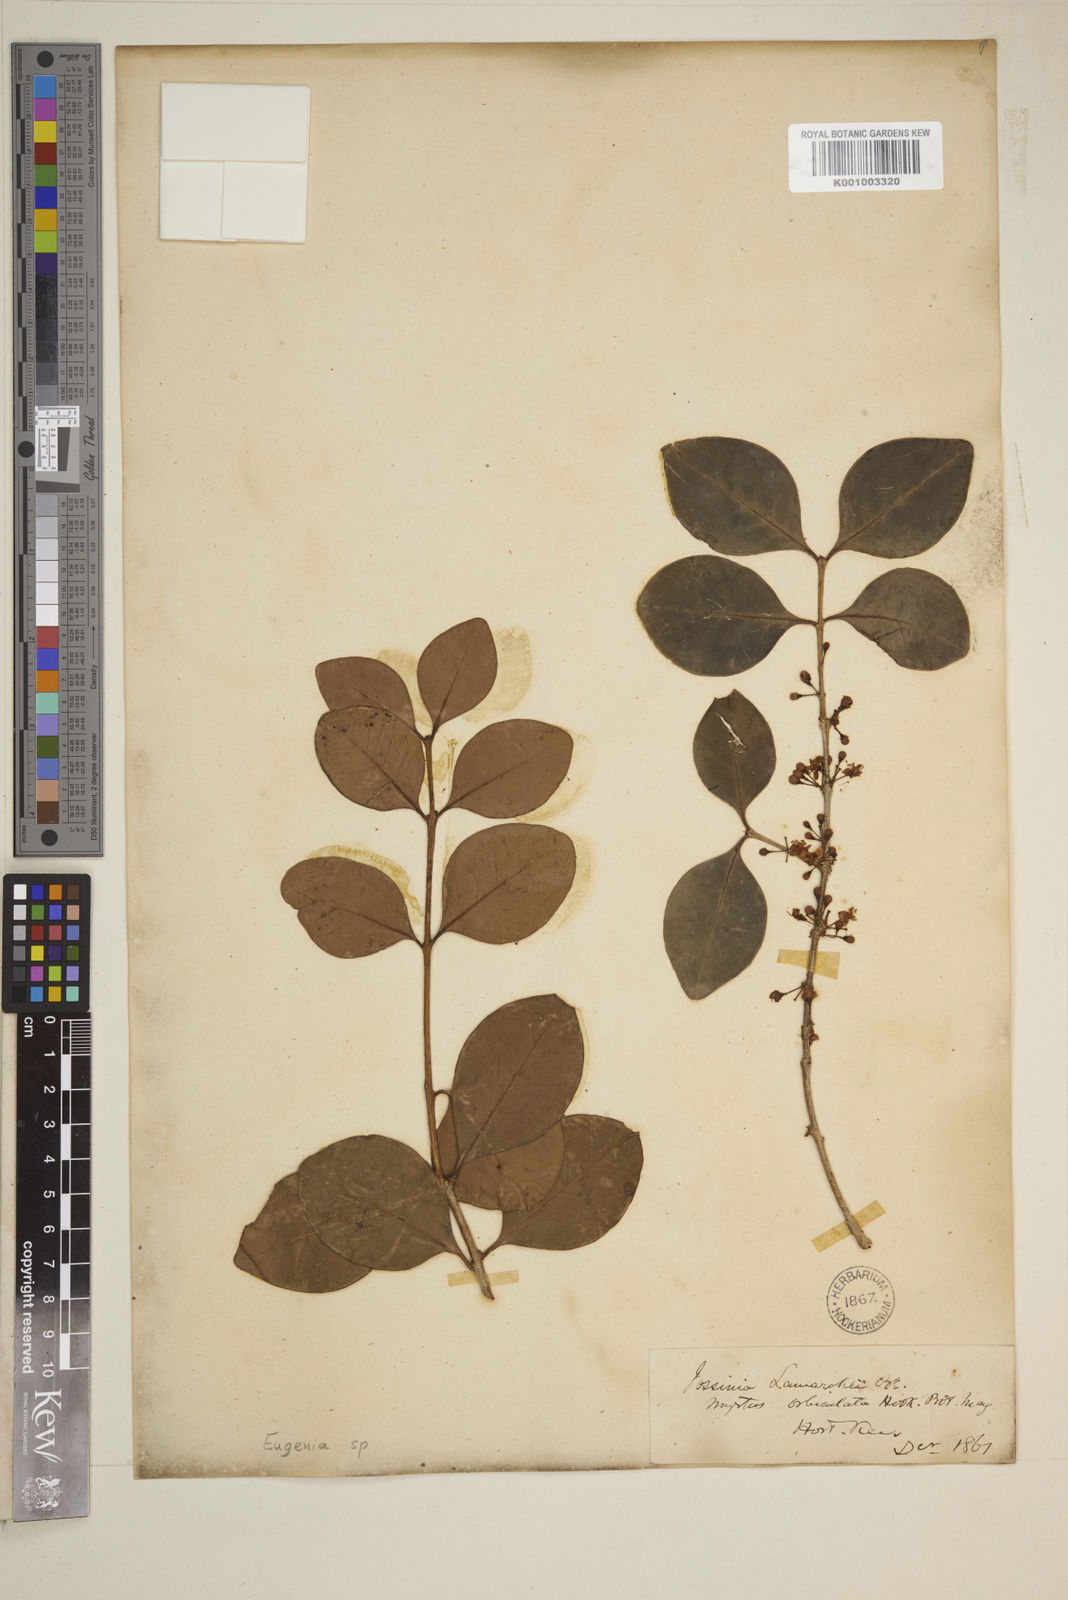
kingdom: Plantae
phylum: Tracheophyta
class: Magnoliopsida
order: Myrtales
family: Myrtaceae
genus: Eugenia
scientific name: Eugenia orbiculata
